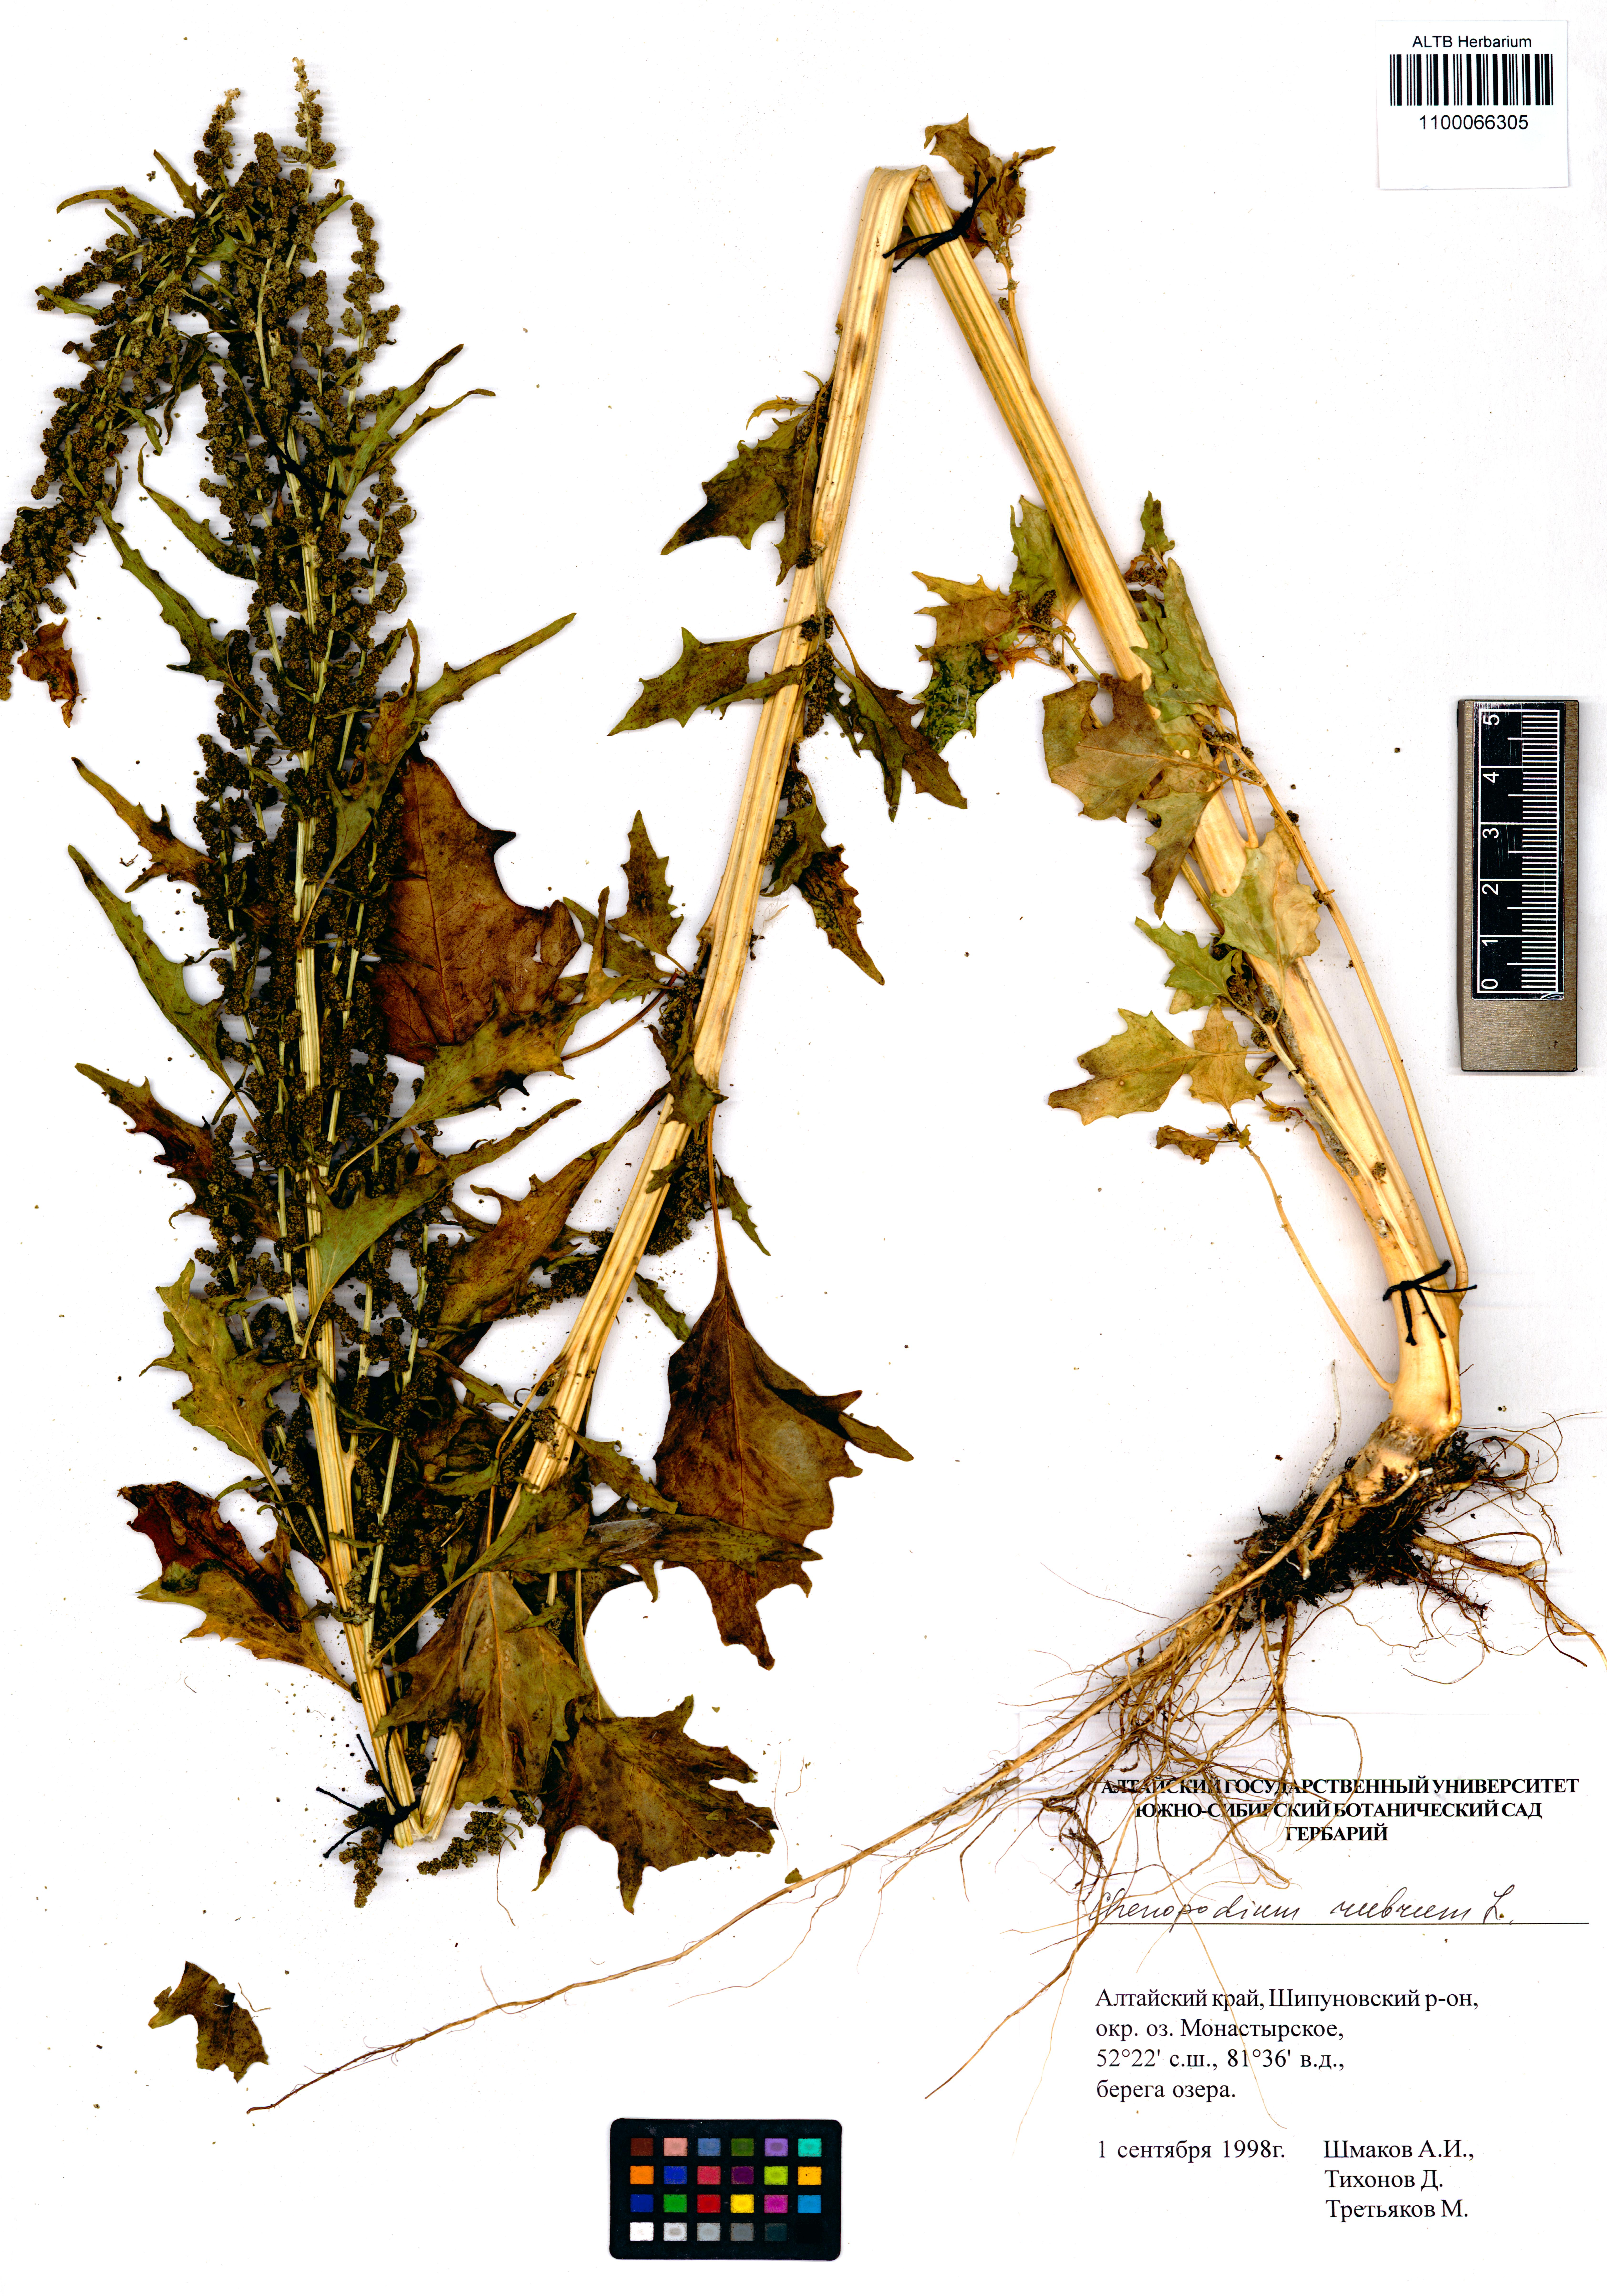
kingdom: Plantae
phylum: Tracheophyta
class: Magnoliopsida
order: Caryophyllales
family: Amaranthaceae
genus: Oxybasis
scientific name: Oxybasis rubra
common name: Red goosefoot
